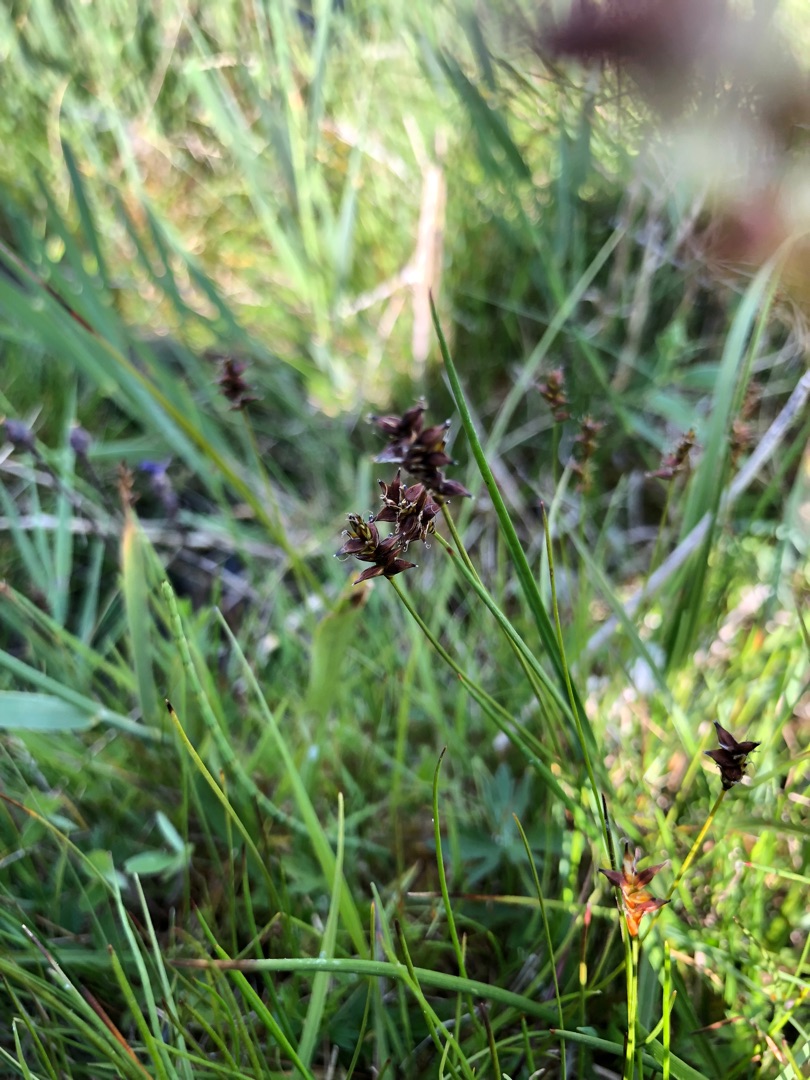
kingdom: Plantae
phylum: Tracheophyta
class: Liliopsida
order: Poales
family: Cyperaceae
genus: Carex
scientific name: Carex dioica
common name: Tvebo star
